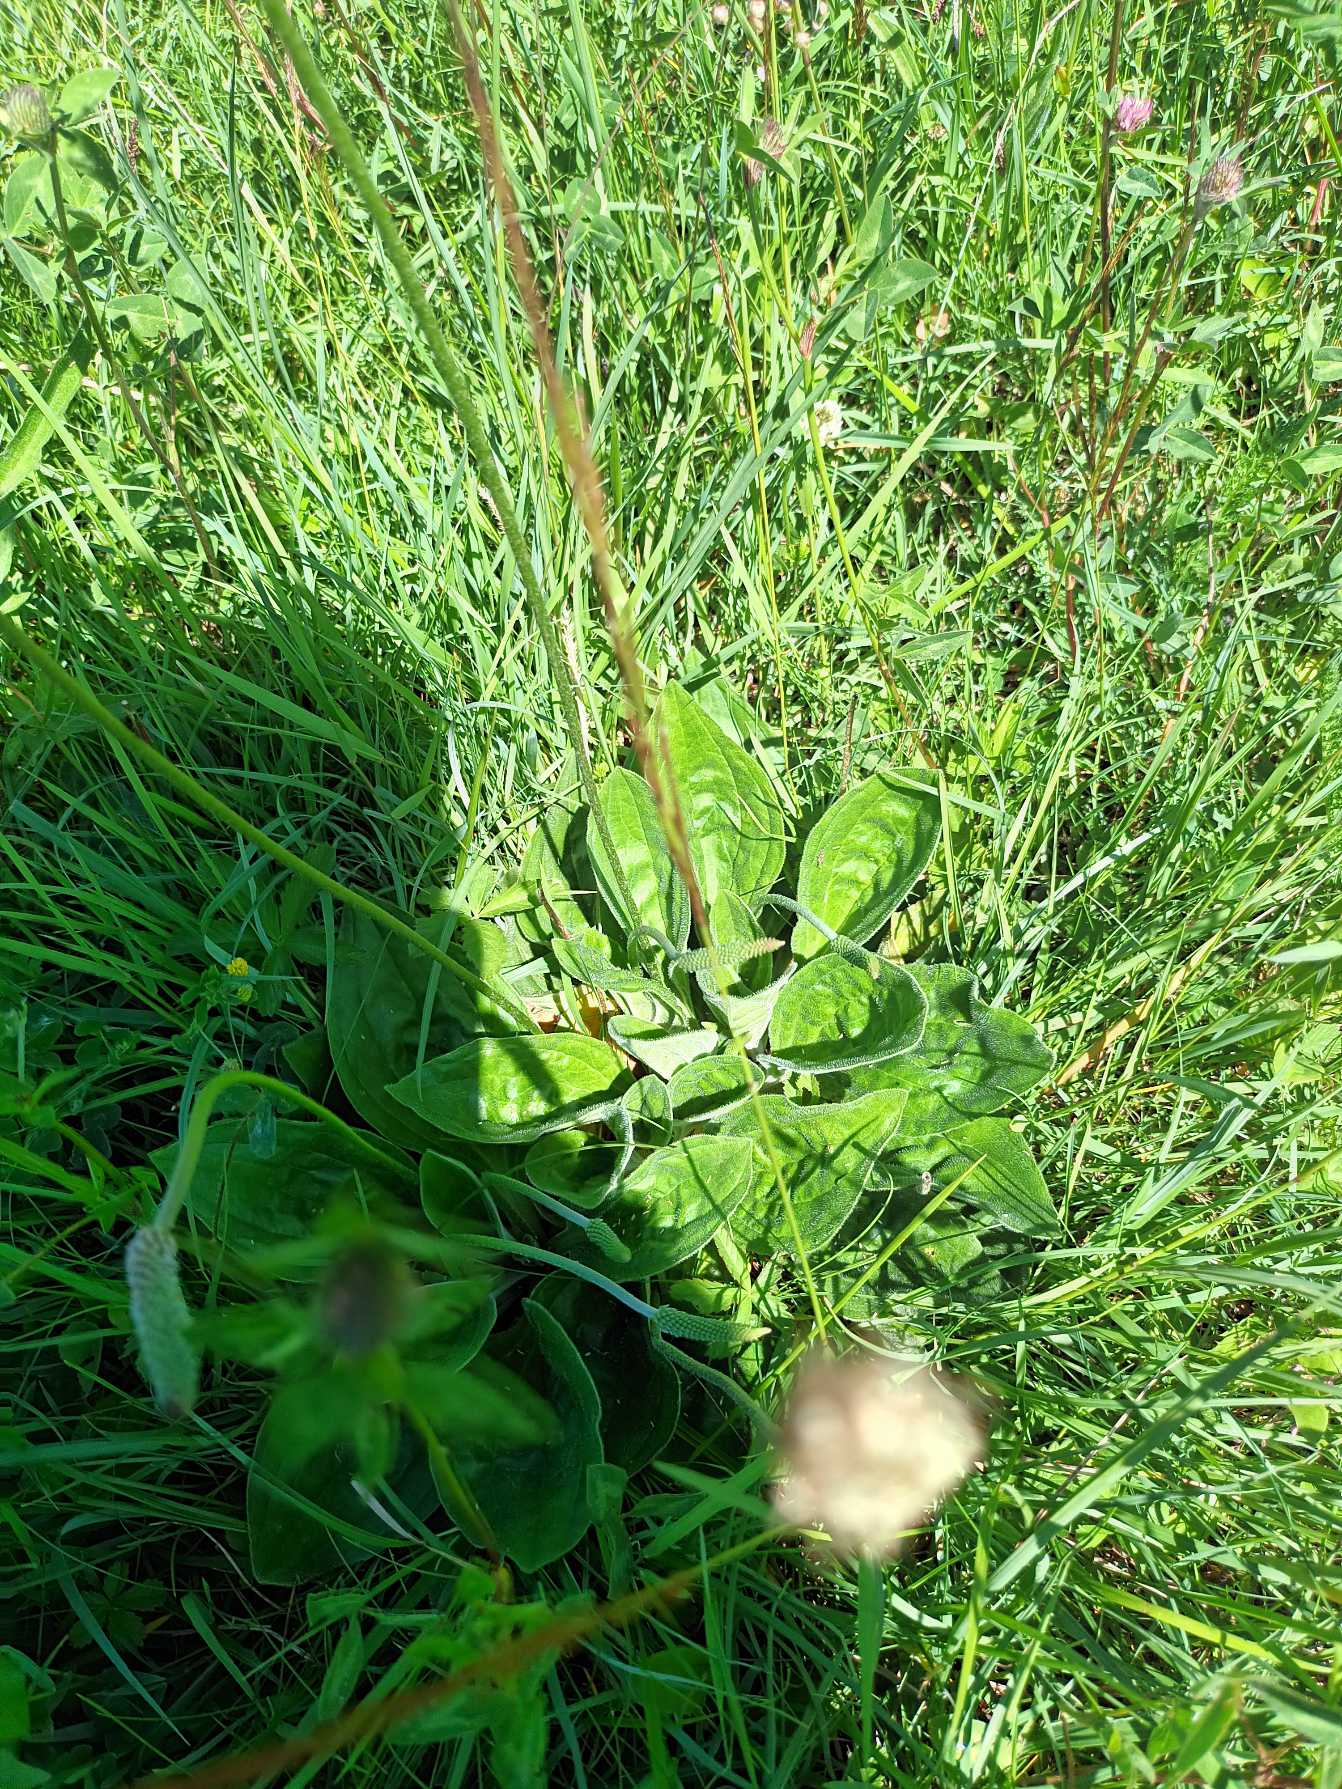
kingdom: Plantae
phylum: Tracheophyta
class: Magnoliopsida
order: Lamiales
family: Plantaginaceae
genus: Plantago
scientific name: Plantago media
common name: Dunet vejbred
